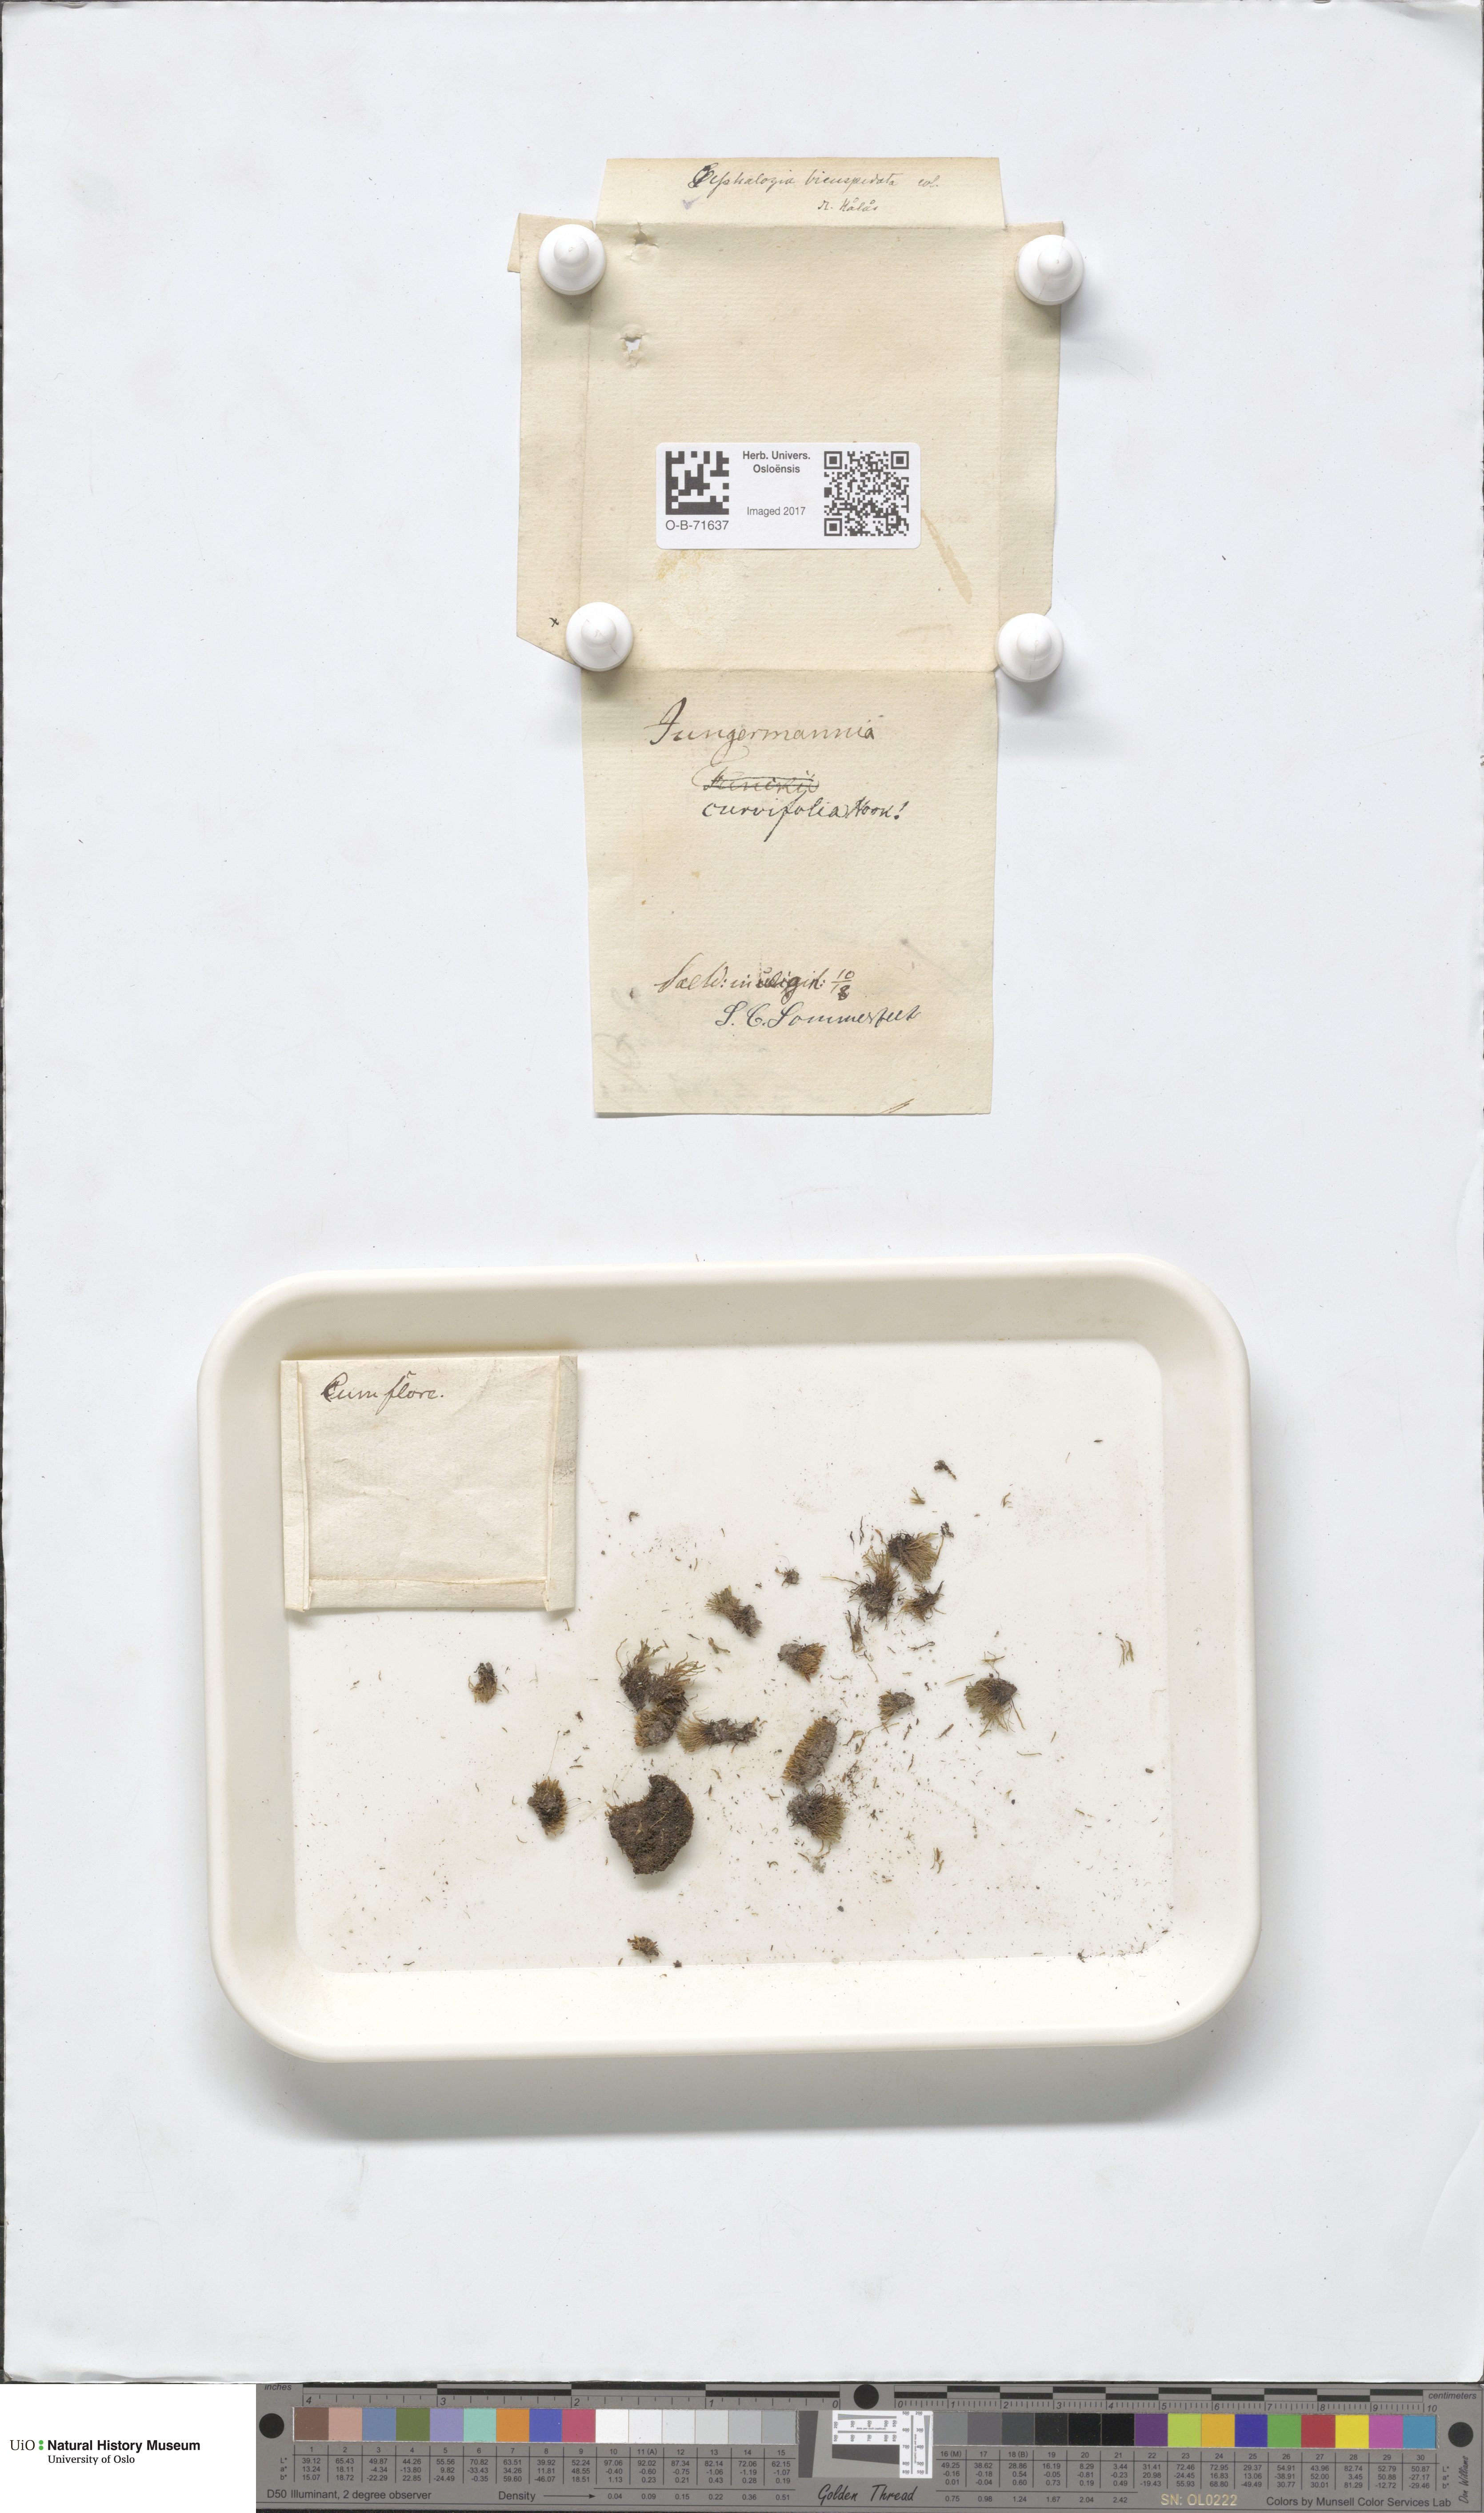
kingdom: Plantae
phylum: Marchantiophyta
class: Jungermanniopsida
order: Jungermanniales
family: Cephaloziaceae
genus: Cephalozia
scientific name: Cephalozia bicuspidata
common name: Two-horned pincerwort
